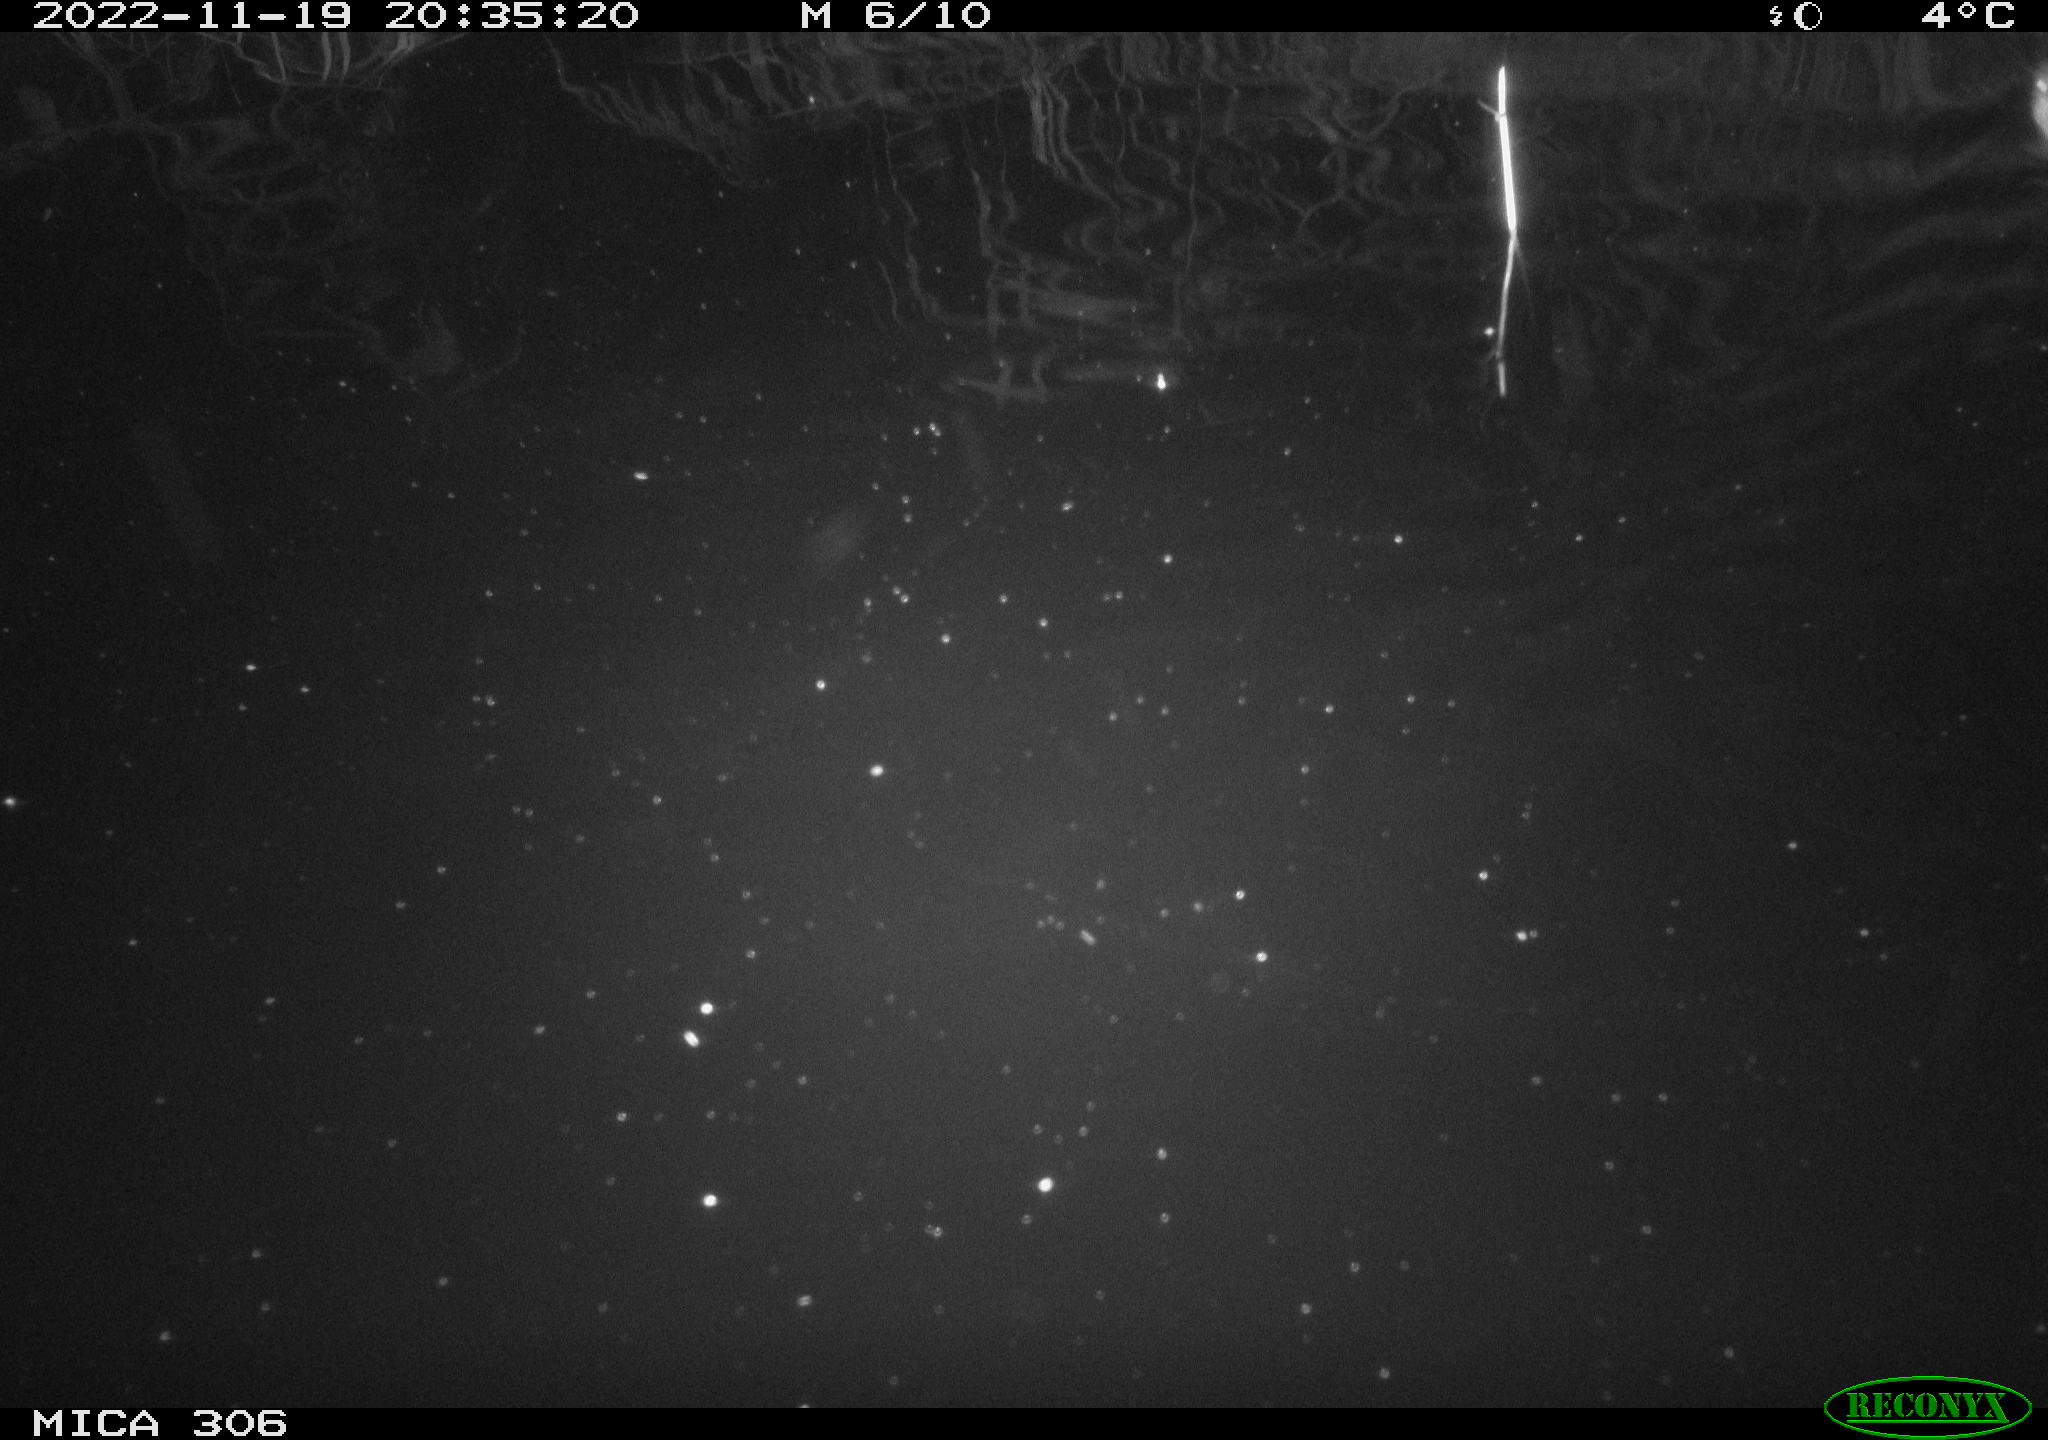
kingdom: Animalia
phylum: Chordata
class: Mammalia
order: Rodentia
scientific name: Rodentia
